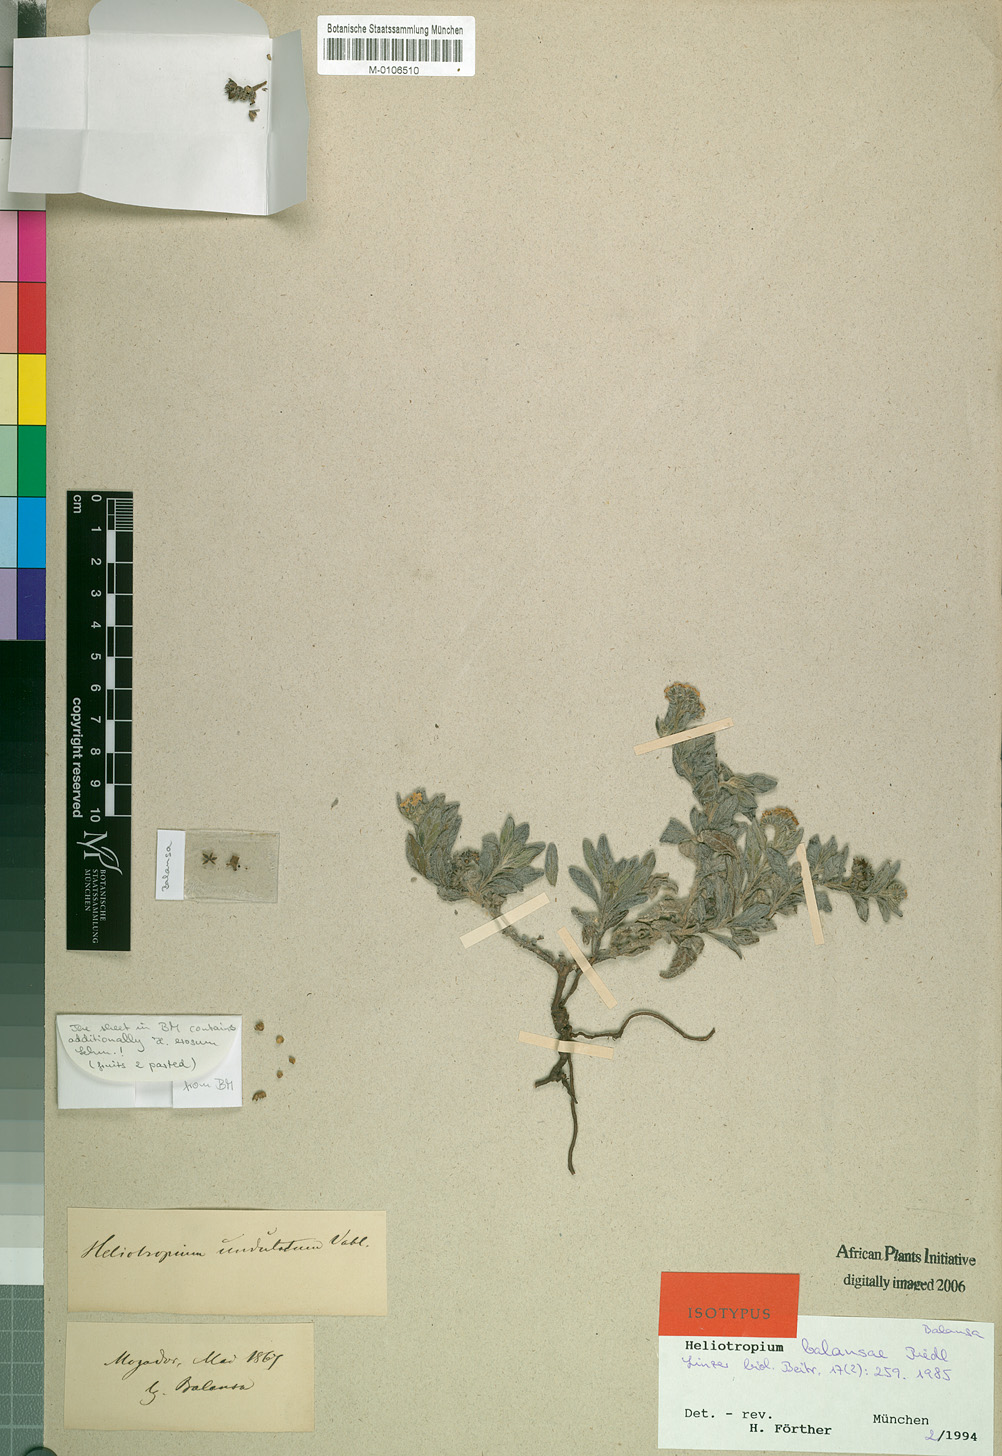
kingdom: Plantae
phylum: Tracheophyta
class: Magnoliopsida
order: Boraginales
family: Heliotropiaceae
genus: Heliotropium
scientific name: Heliotropium ramosissimum
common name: Wavy heliotrope
